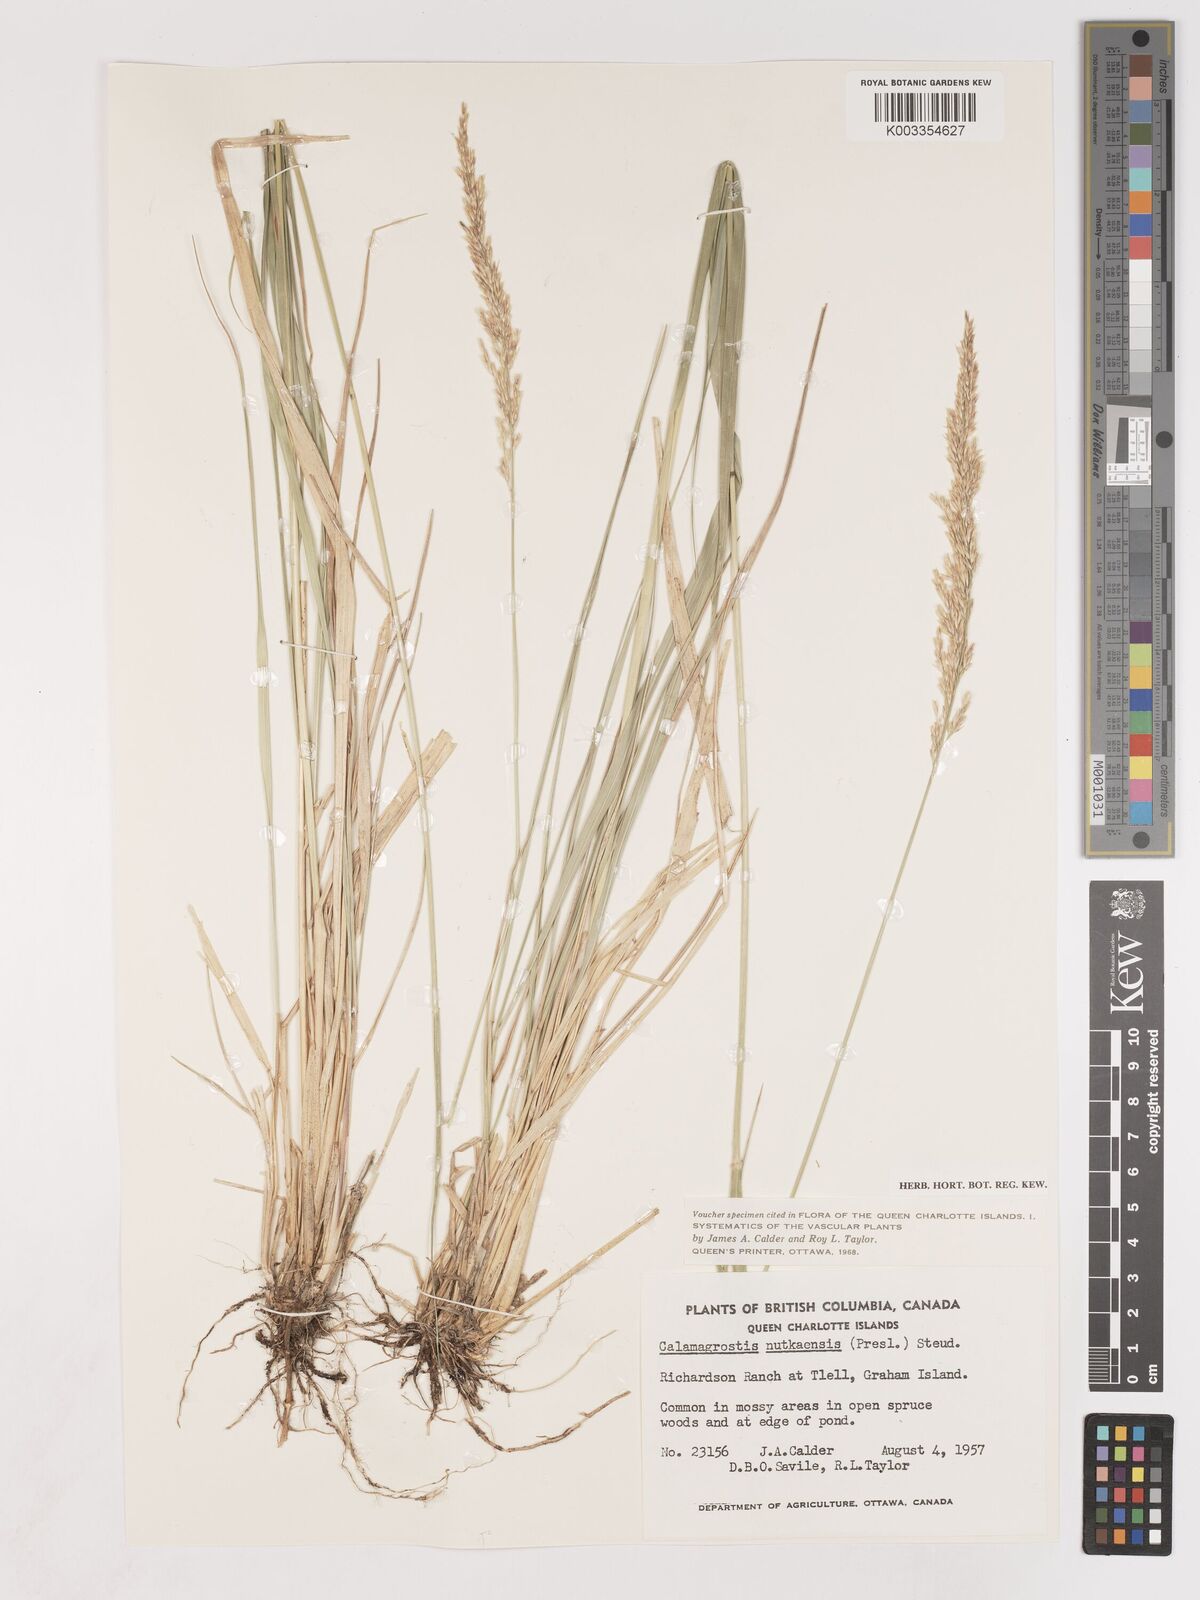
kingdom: Plantae
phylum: Tracheophyta
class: Liliopsida
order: Poales
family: Poaceae
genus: Calamagrostis
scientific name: Calamagrostis nutkaensis
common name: Pacific reed grass
